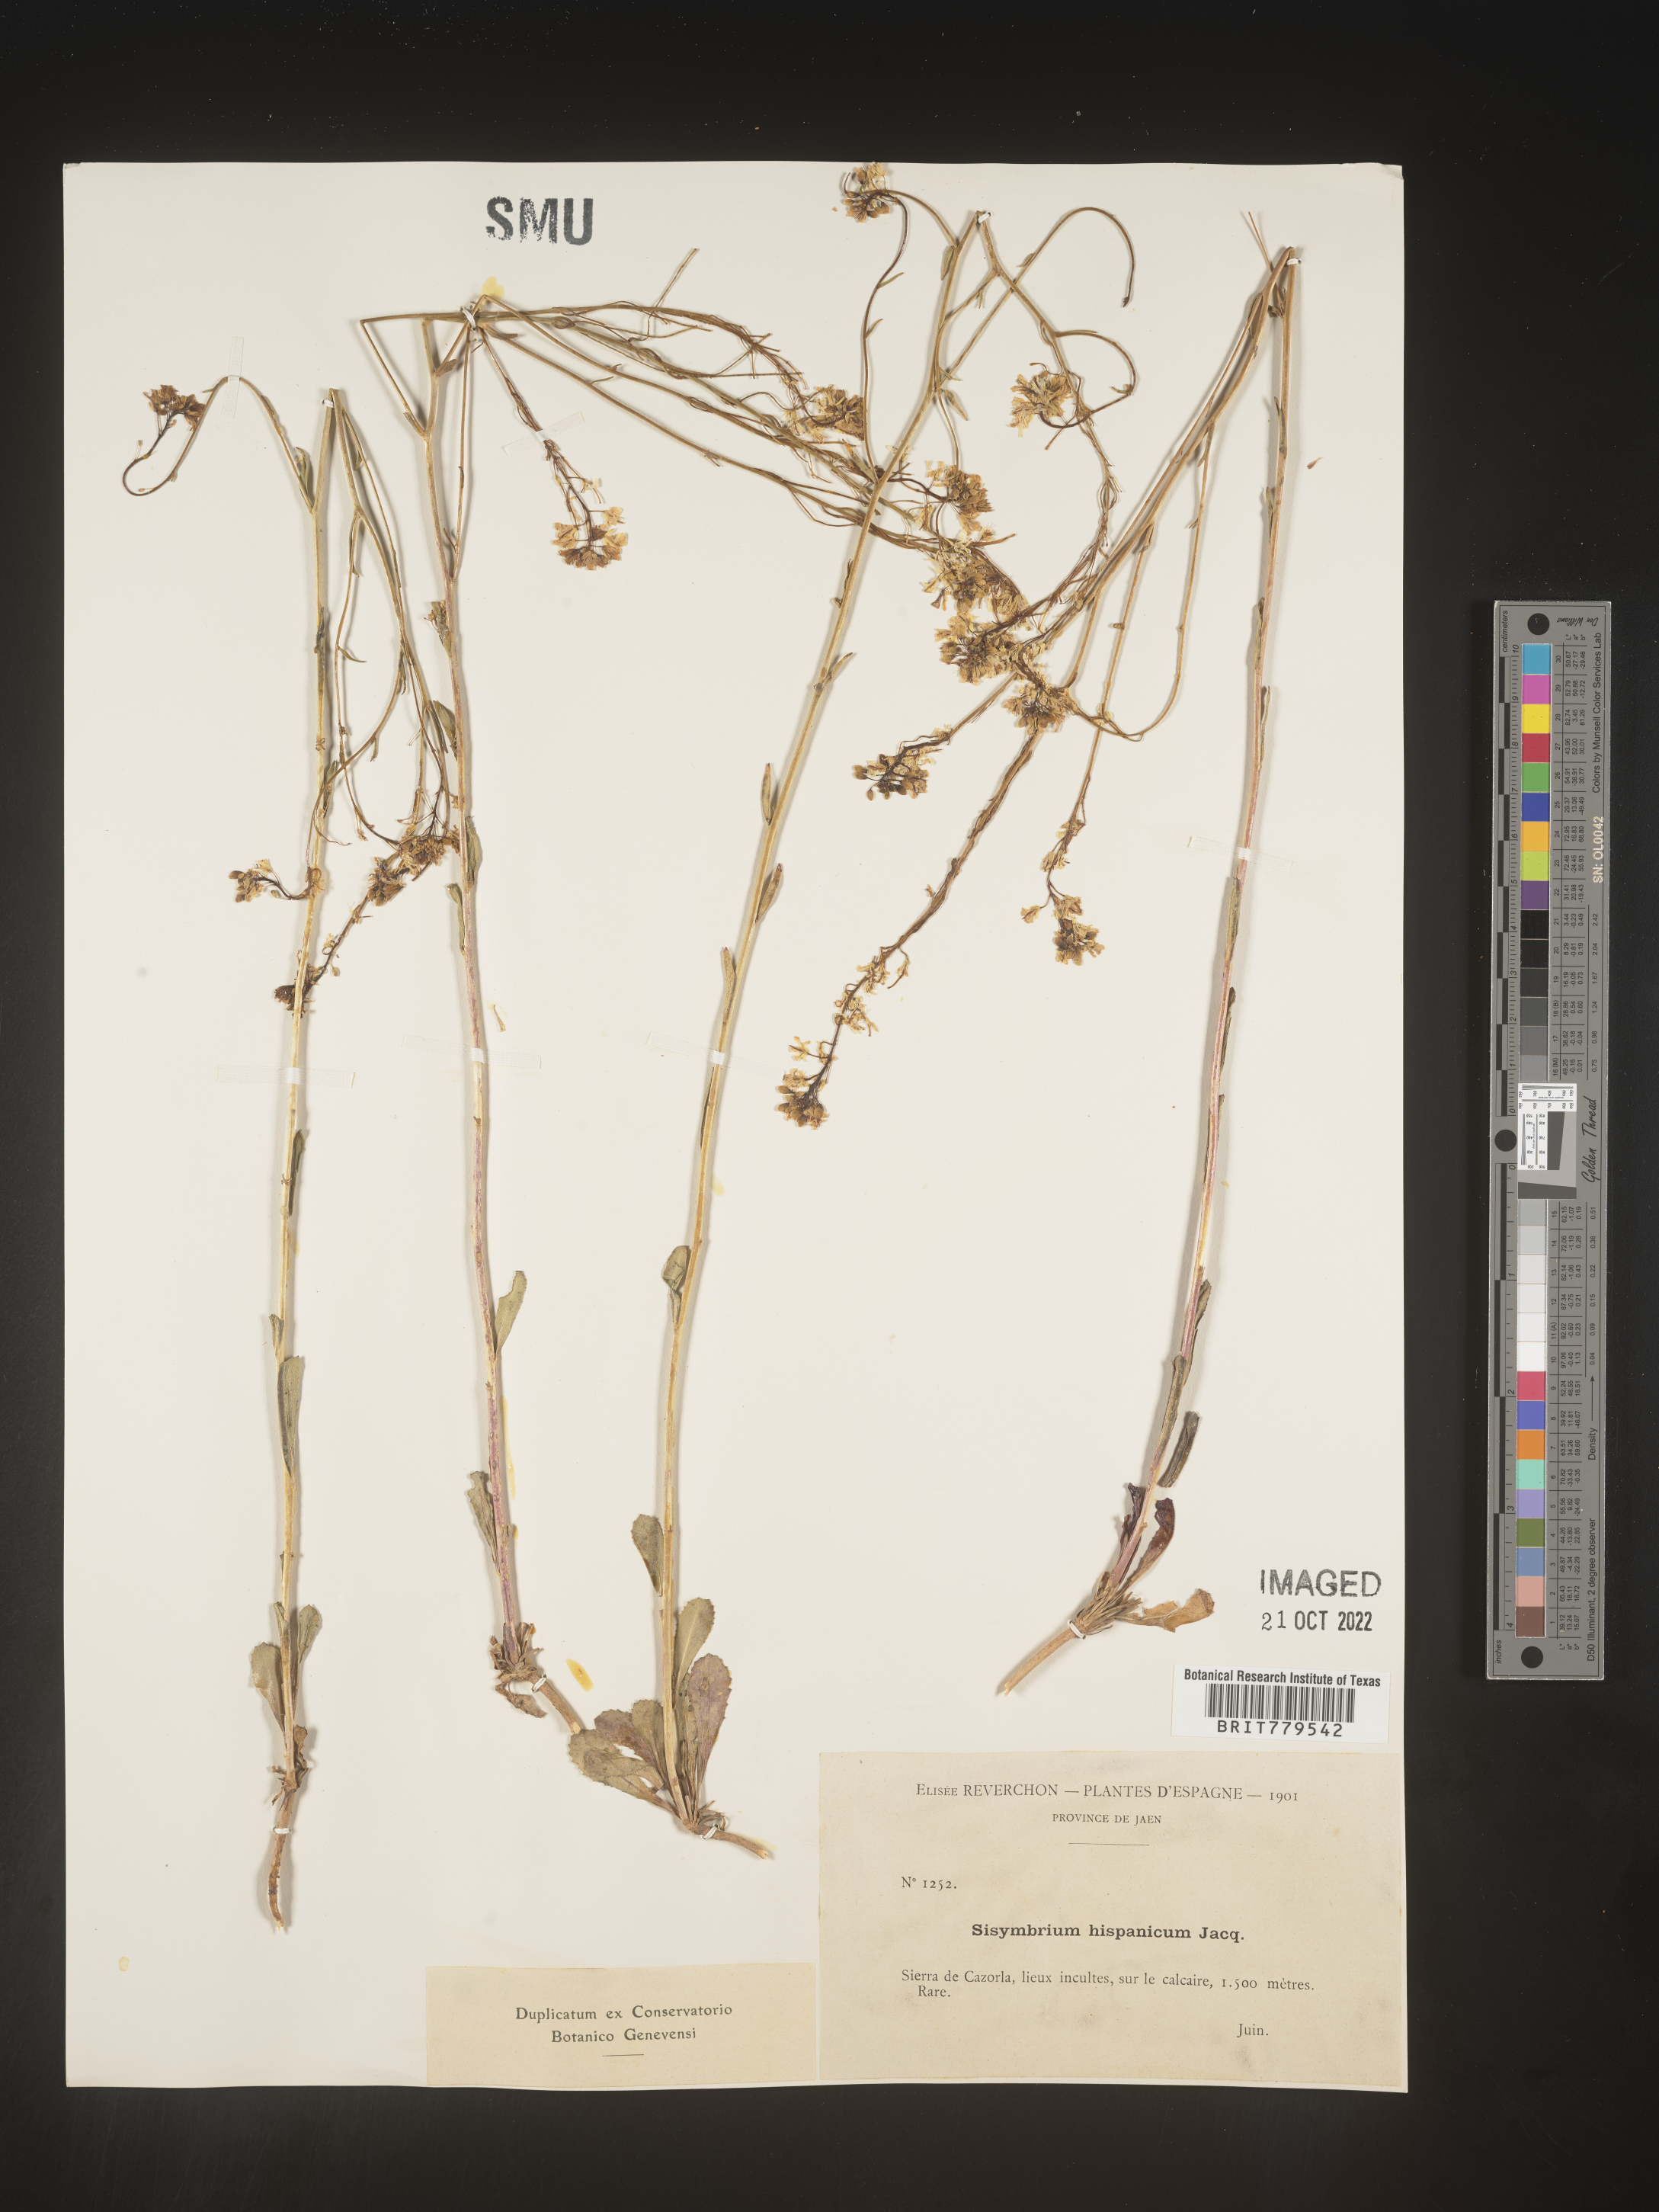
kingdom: Plantae
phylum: Tracheophyta
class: Magnoliopsida
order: Brassicales
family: Brassicaceae
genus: Sisymbrium
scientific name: Sisymbrium
